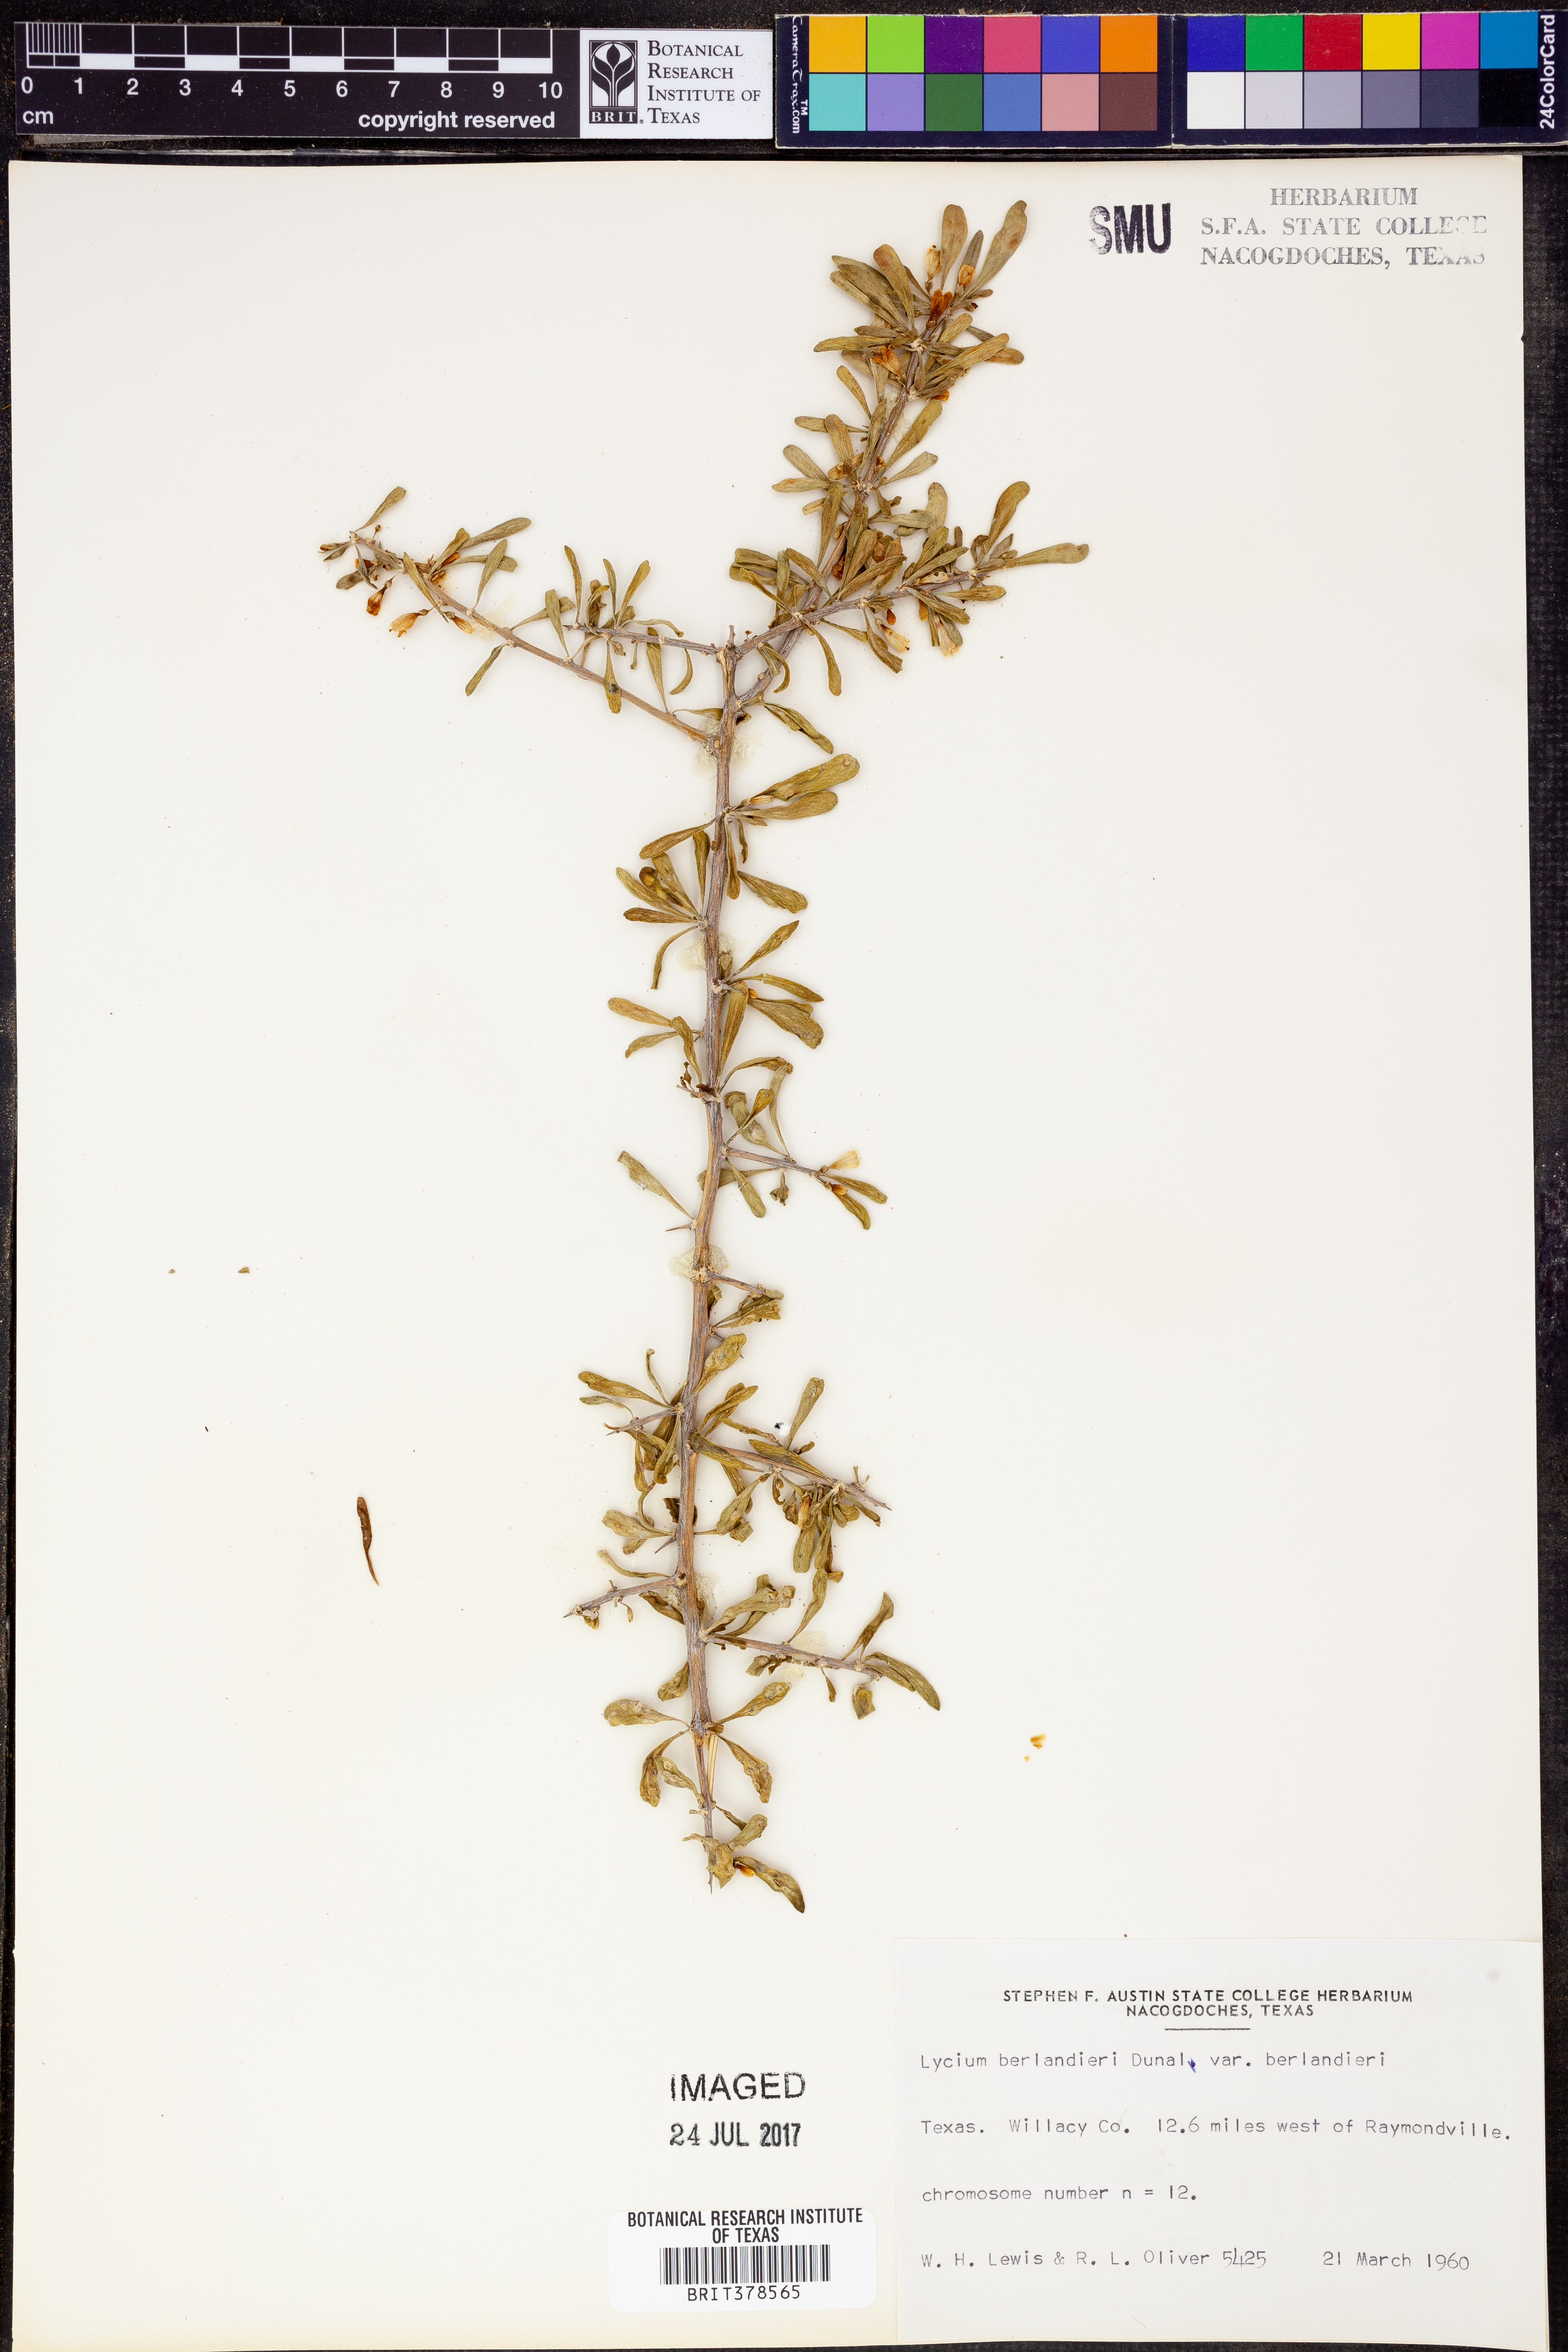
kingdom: Plantae
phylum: Tracheophyta
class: Magnoliopsida
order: Solanales
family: Solanaceae
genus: Lycium
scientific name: Lycium berlandieri
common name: Berlandier wolfberry
